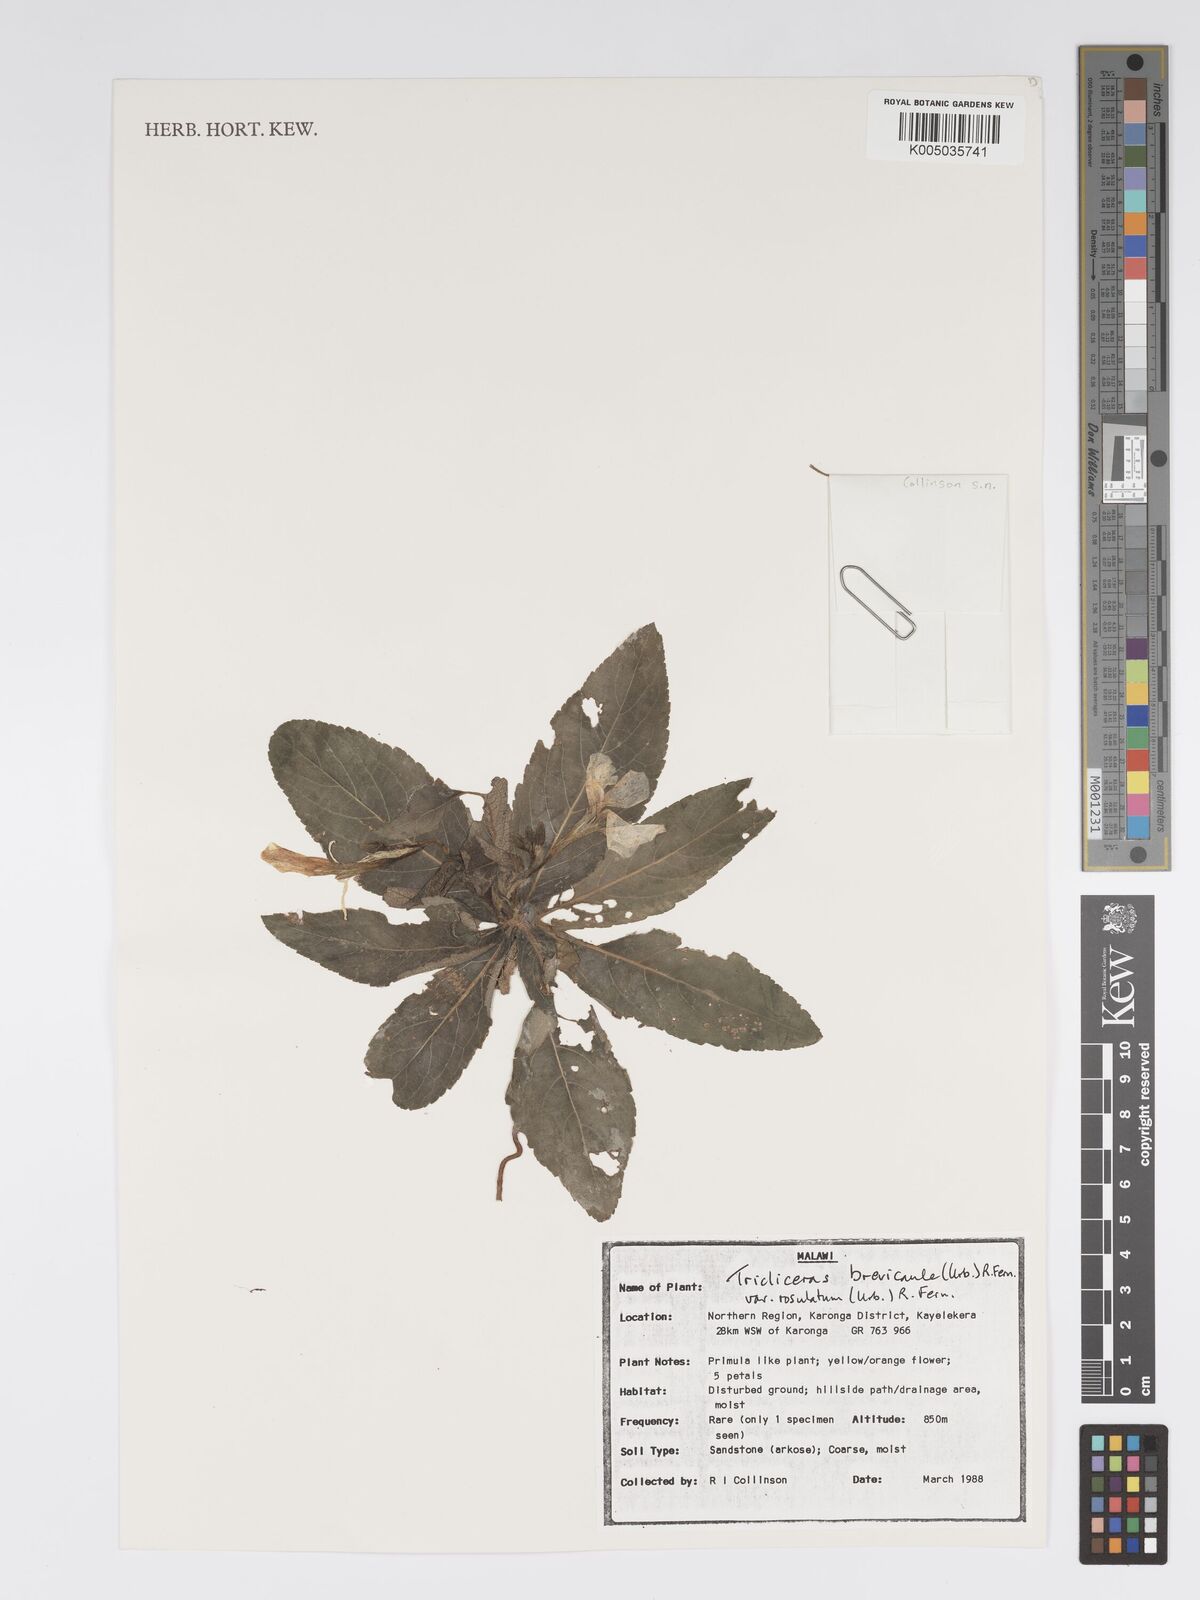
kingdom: Plantae
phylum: Tracheophyta
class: Magnoliopsida
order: Malpighiales
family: Turneraceae
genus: Tricliceras
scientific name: Tricliceras brevicaule
